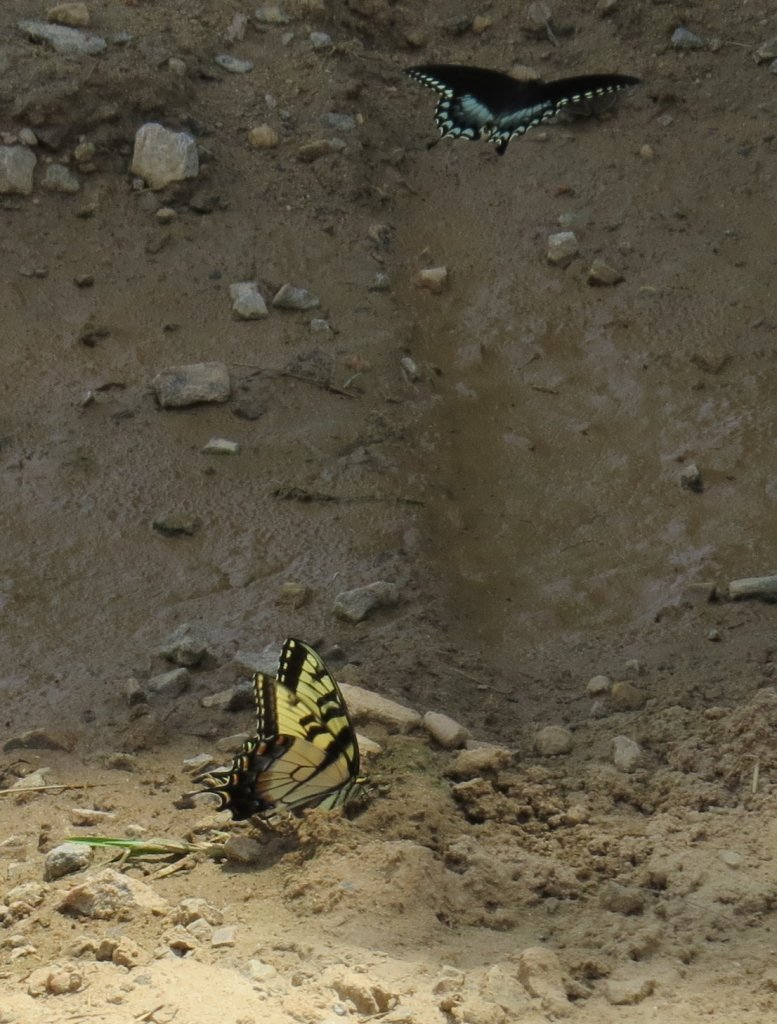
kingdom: Animalia
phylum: Arthropoda
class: Insecta
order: Lepidoptera
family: Papilionidae
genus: Pterourus
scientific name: Pterourus glaucus
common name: Eastern Tiger Swallowtail
